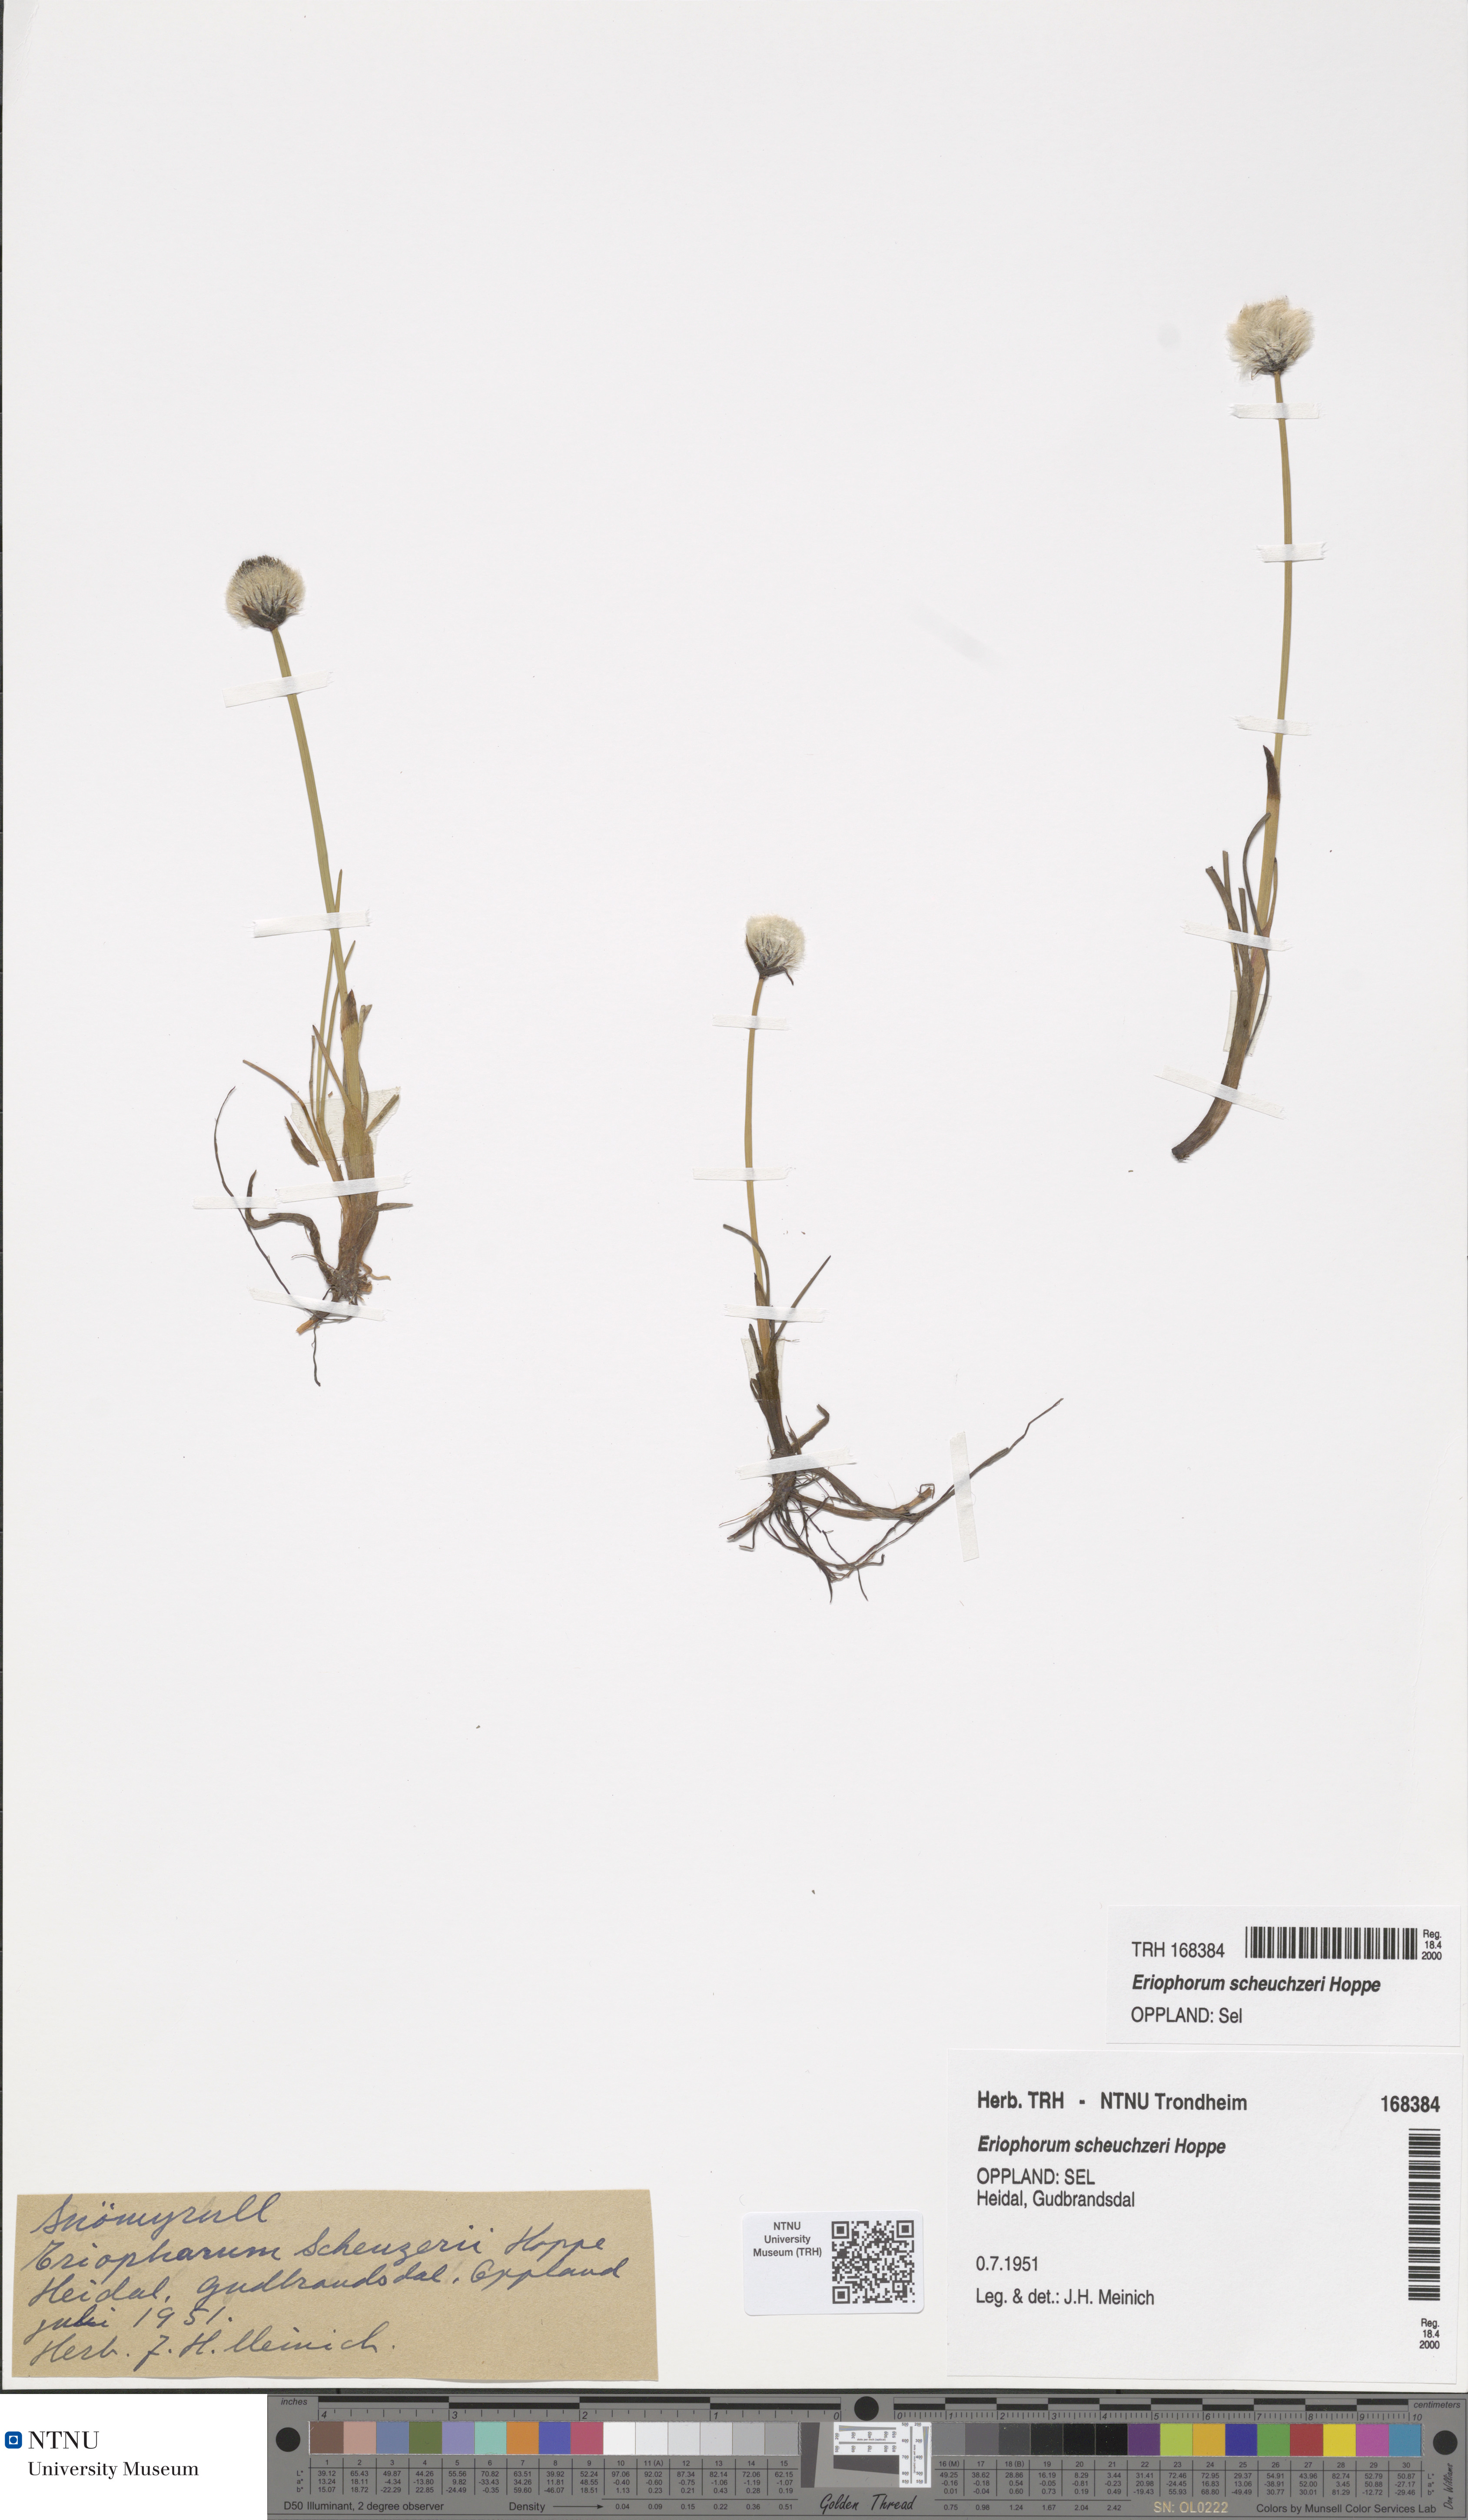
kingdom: Plantae
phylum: Tracheophyta
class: Liliopsida
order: Poales
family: Cyperaceae
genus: Eriophorum
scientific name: Eriophorum scheuchzeri
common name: Scheuchzer's cottongrass
